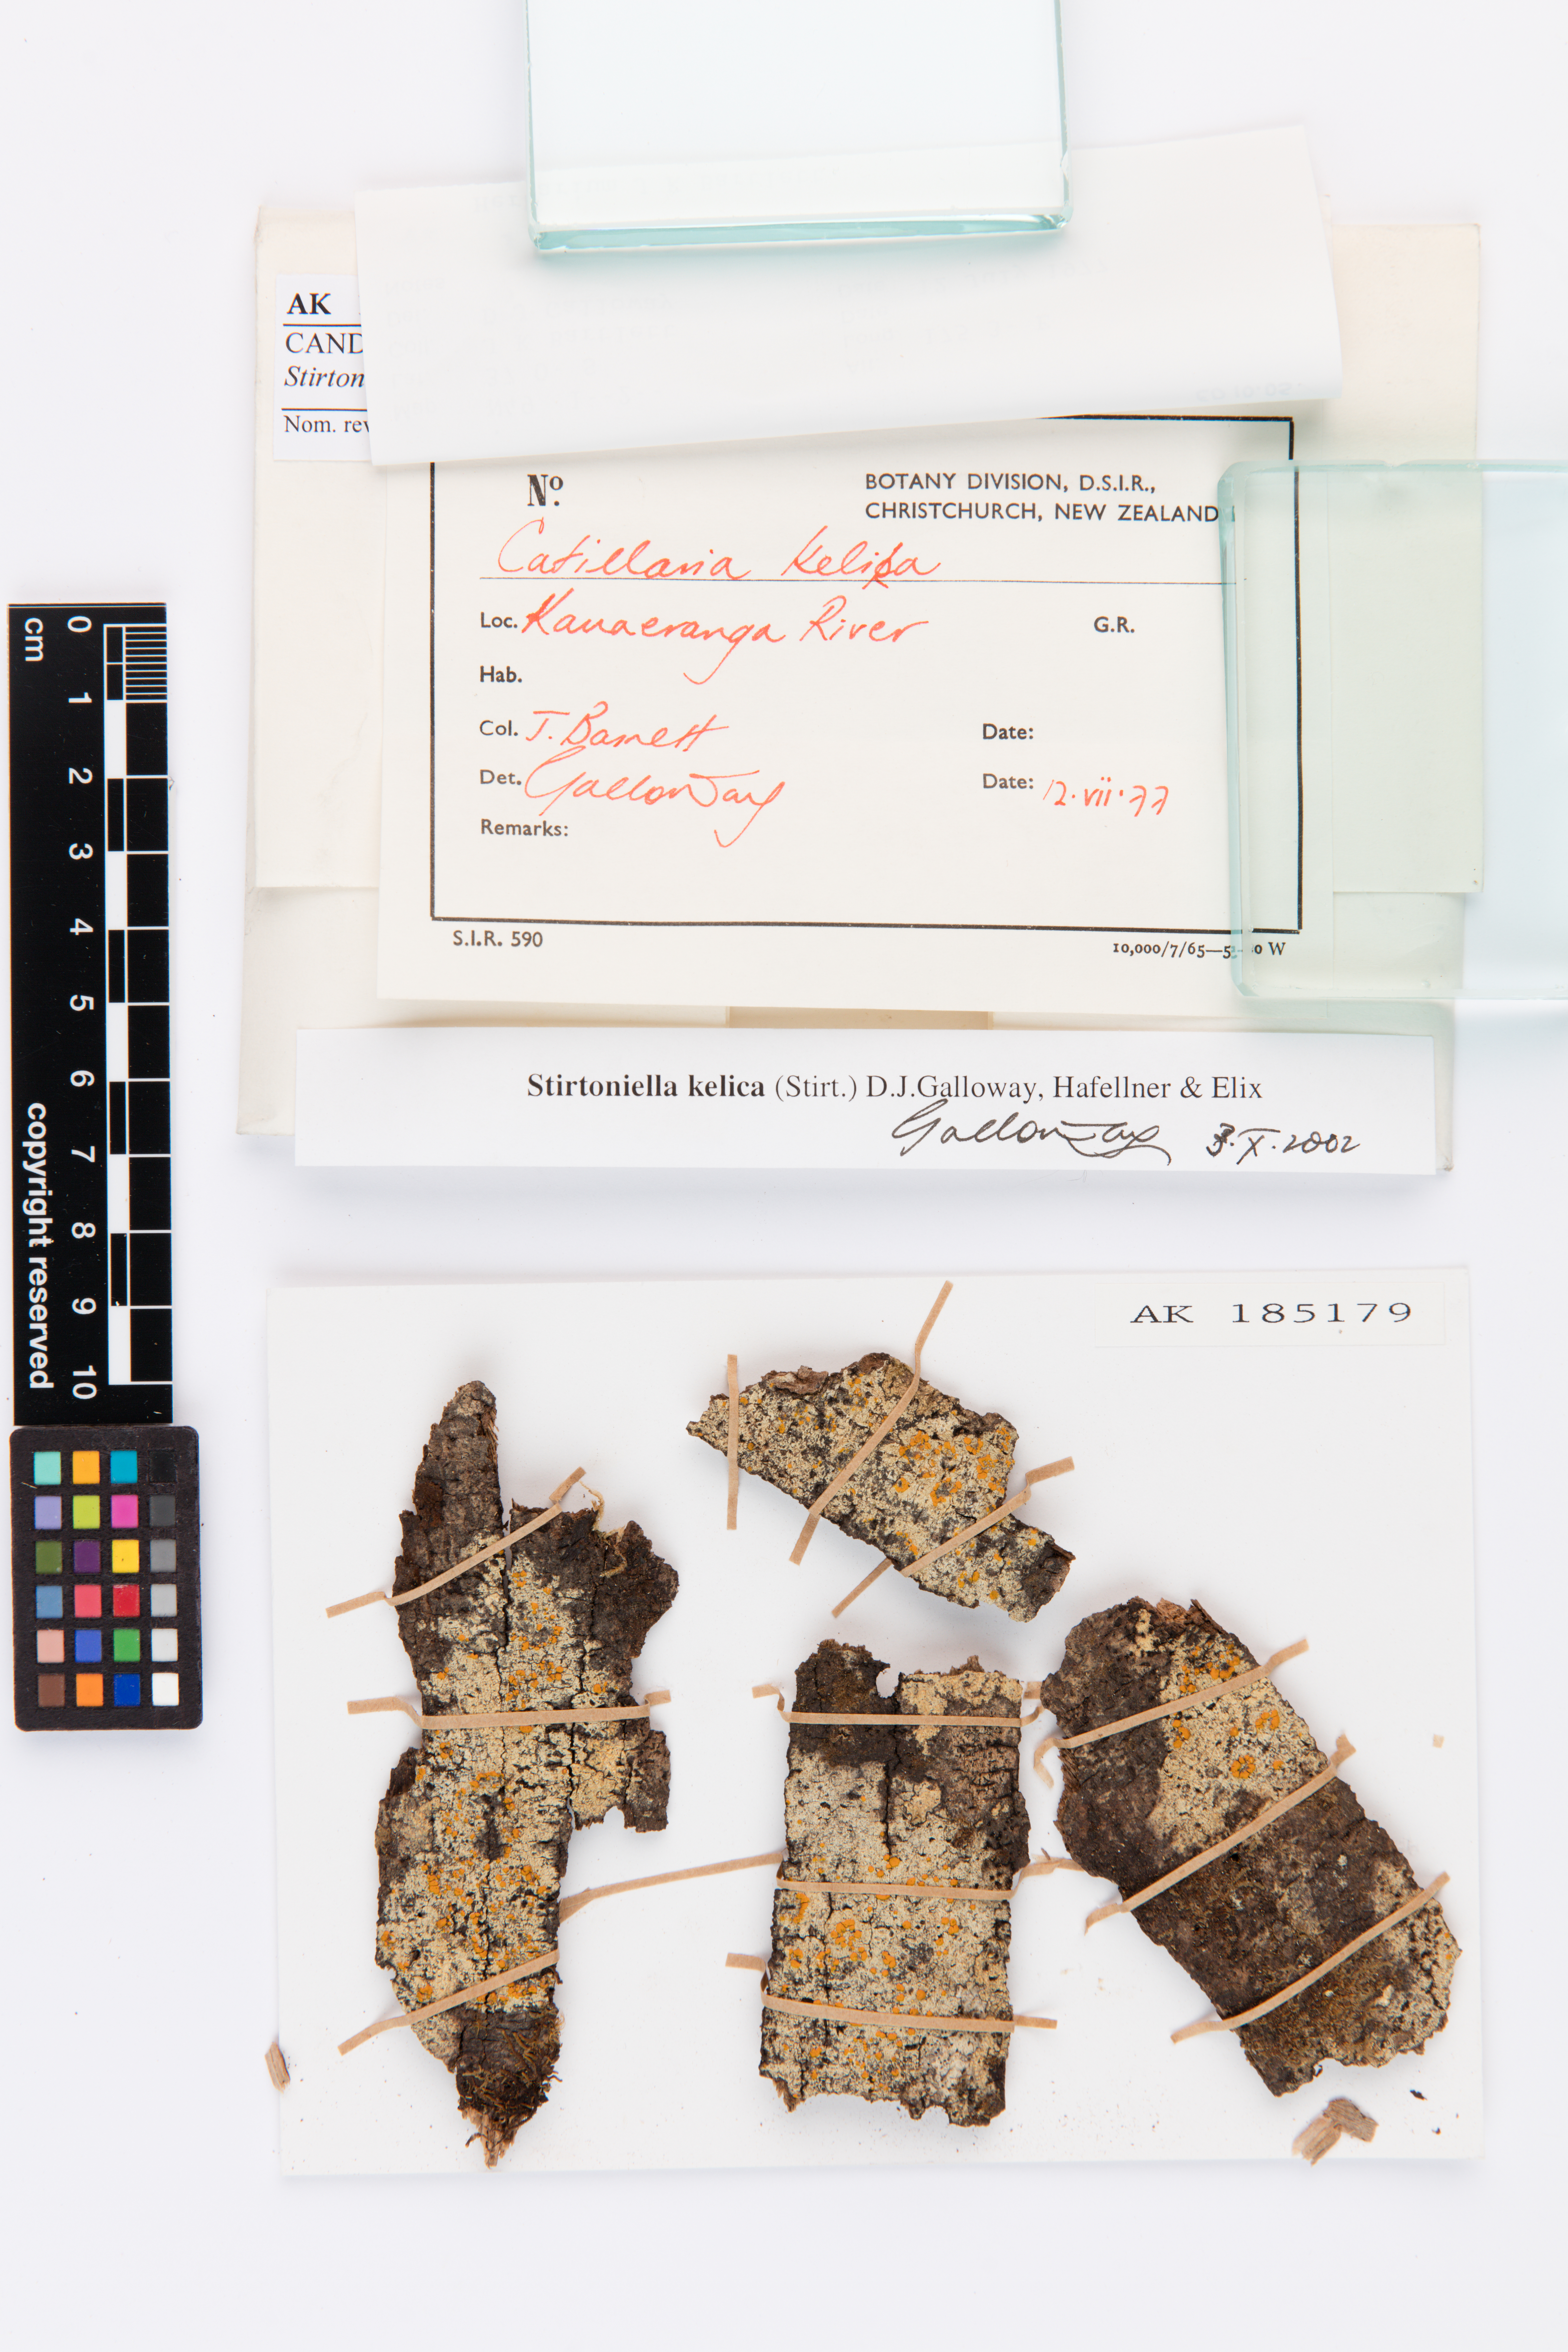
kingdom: Fungi
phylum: Ascomycota
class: Lecanoromycetes
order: Lecanorales
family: Ramalinaceae
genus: Stirtoniella
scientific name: Stirtoniella kelica
